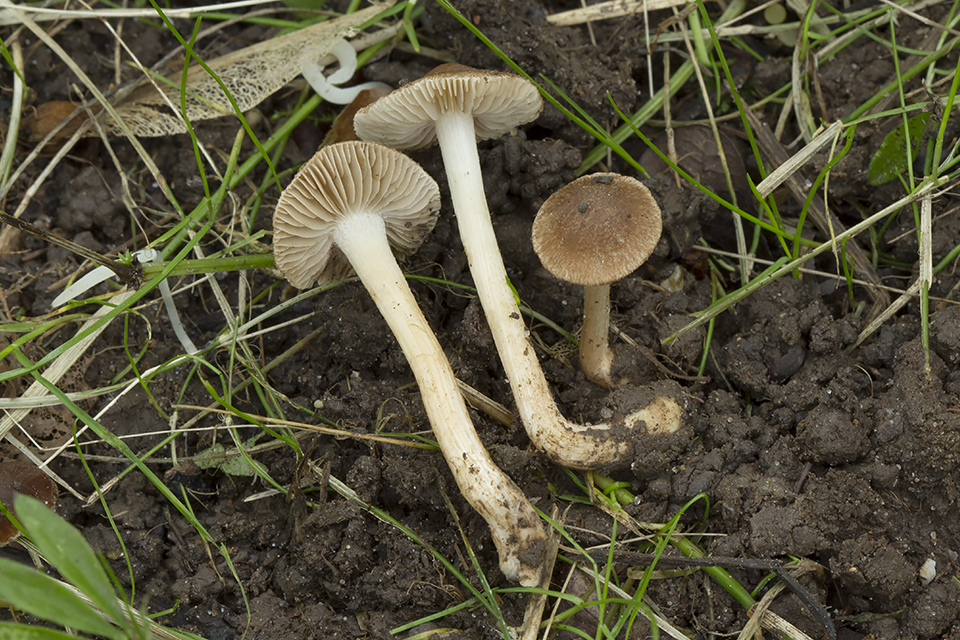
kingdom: Fungi
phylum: Basidiomycota
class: Agaricomycetes
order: Agaricales
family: Inocybaceae
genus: Inocybe
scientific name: Inocybe jucunda
